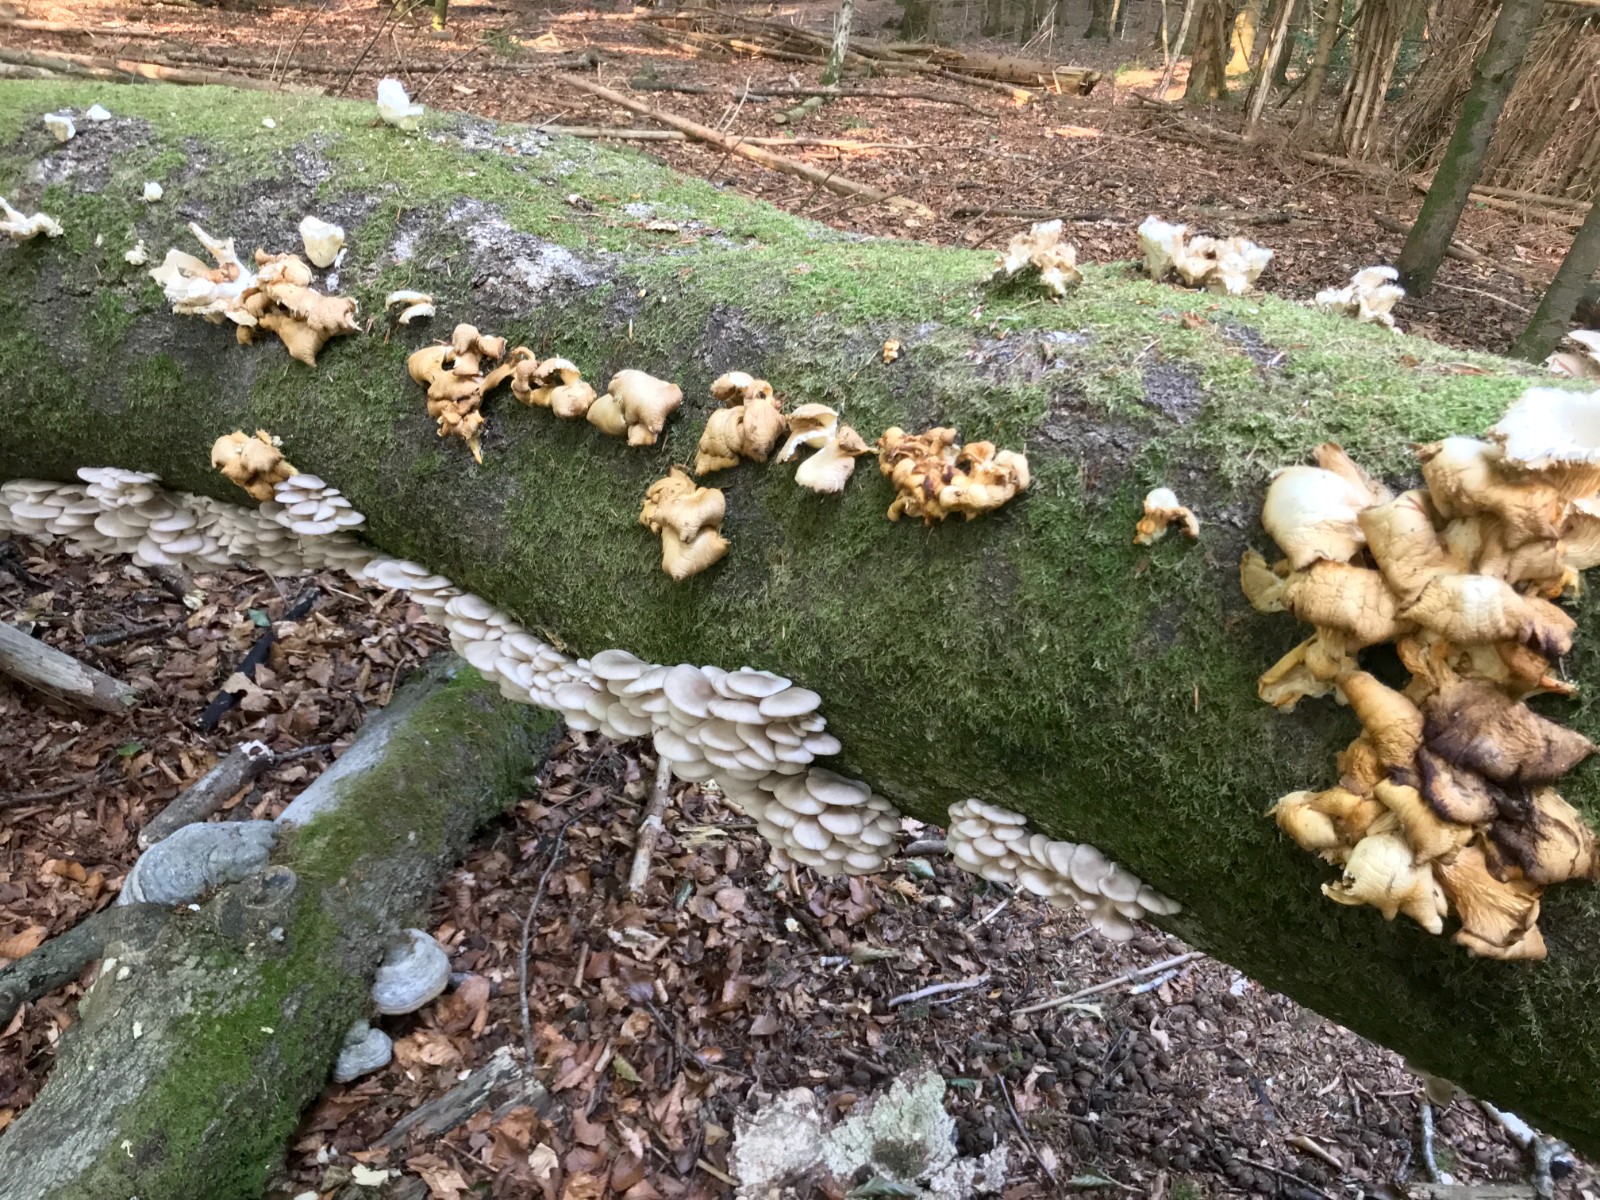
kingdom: Fungi
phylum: Basidiomycota
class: Agaricomycetes
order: Agaricales
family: Pleurotaceae
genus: Pleurotus
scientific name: Pleurotus pulmonarius
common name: sommer-østershat
